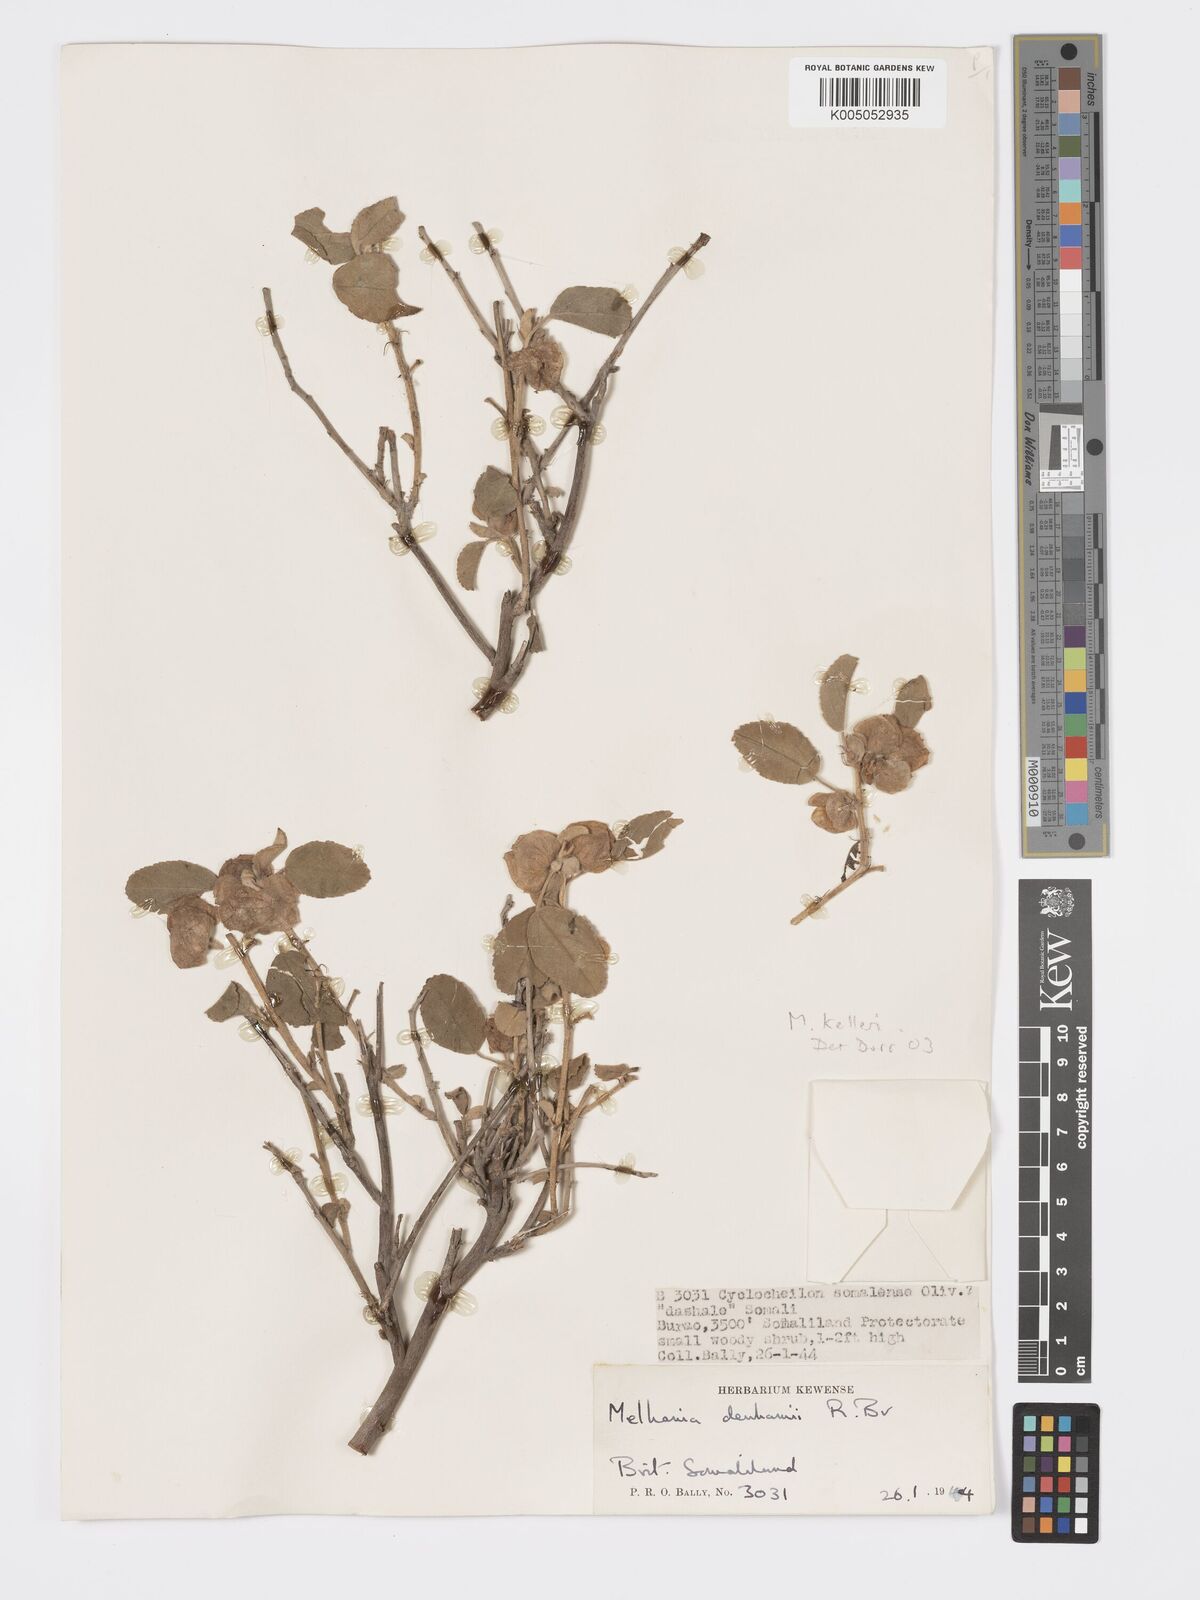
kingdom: Plantae
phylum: Tracheophyta
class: Magnoliopsida
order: Malvales
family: Malvaceae
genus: Melhania
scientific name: Melhania kelleri
